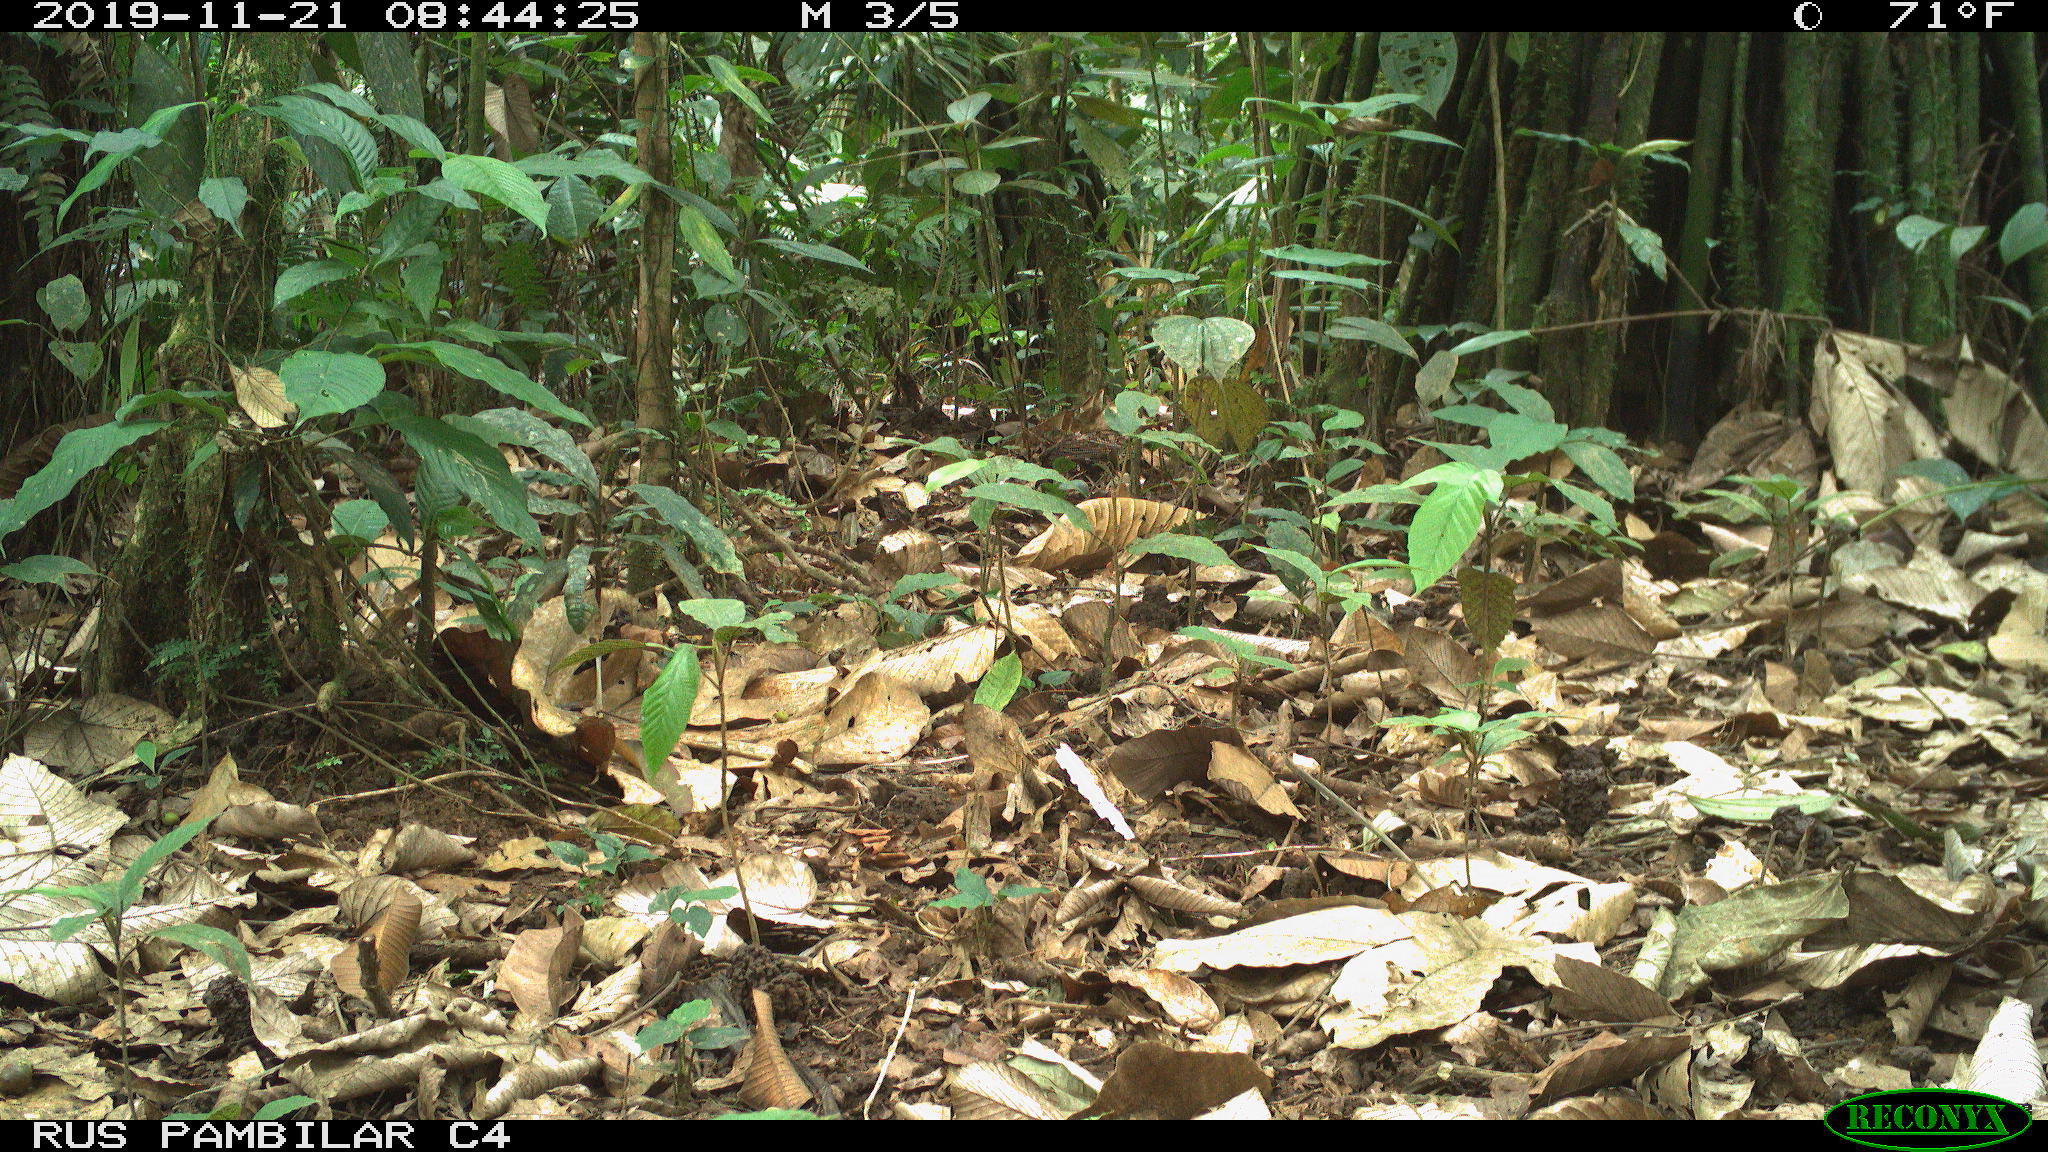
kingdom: Animalia
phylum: Chordata
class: Mammalia
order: Rodentia
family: Dasyproctidae
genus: Dasyprocta
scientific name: Dasyprocta punctata
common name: Central american agouti
